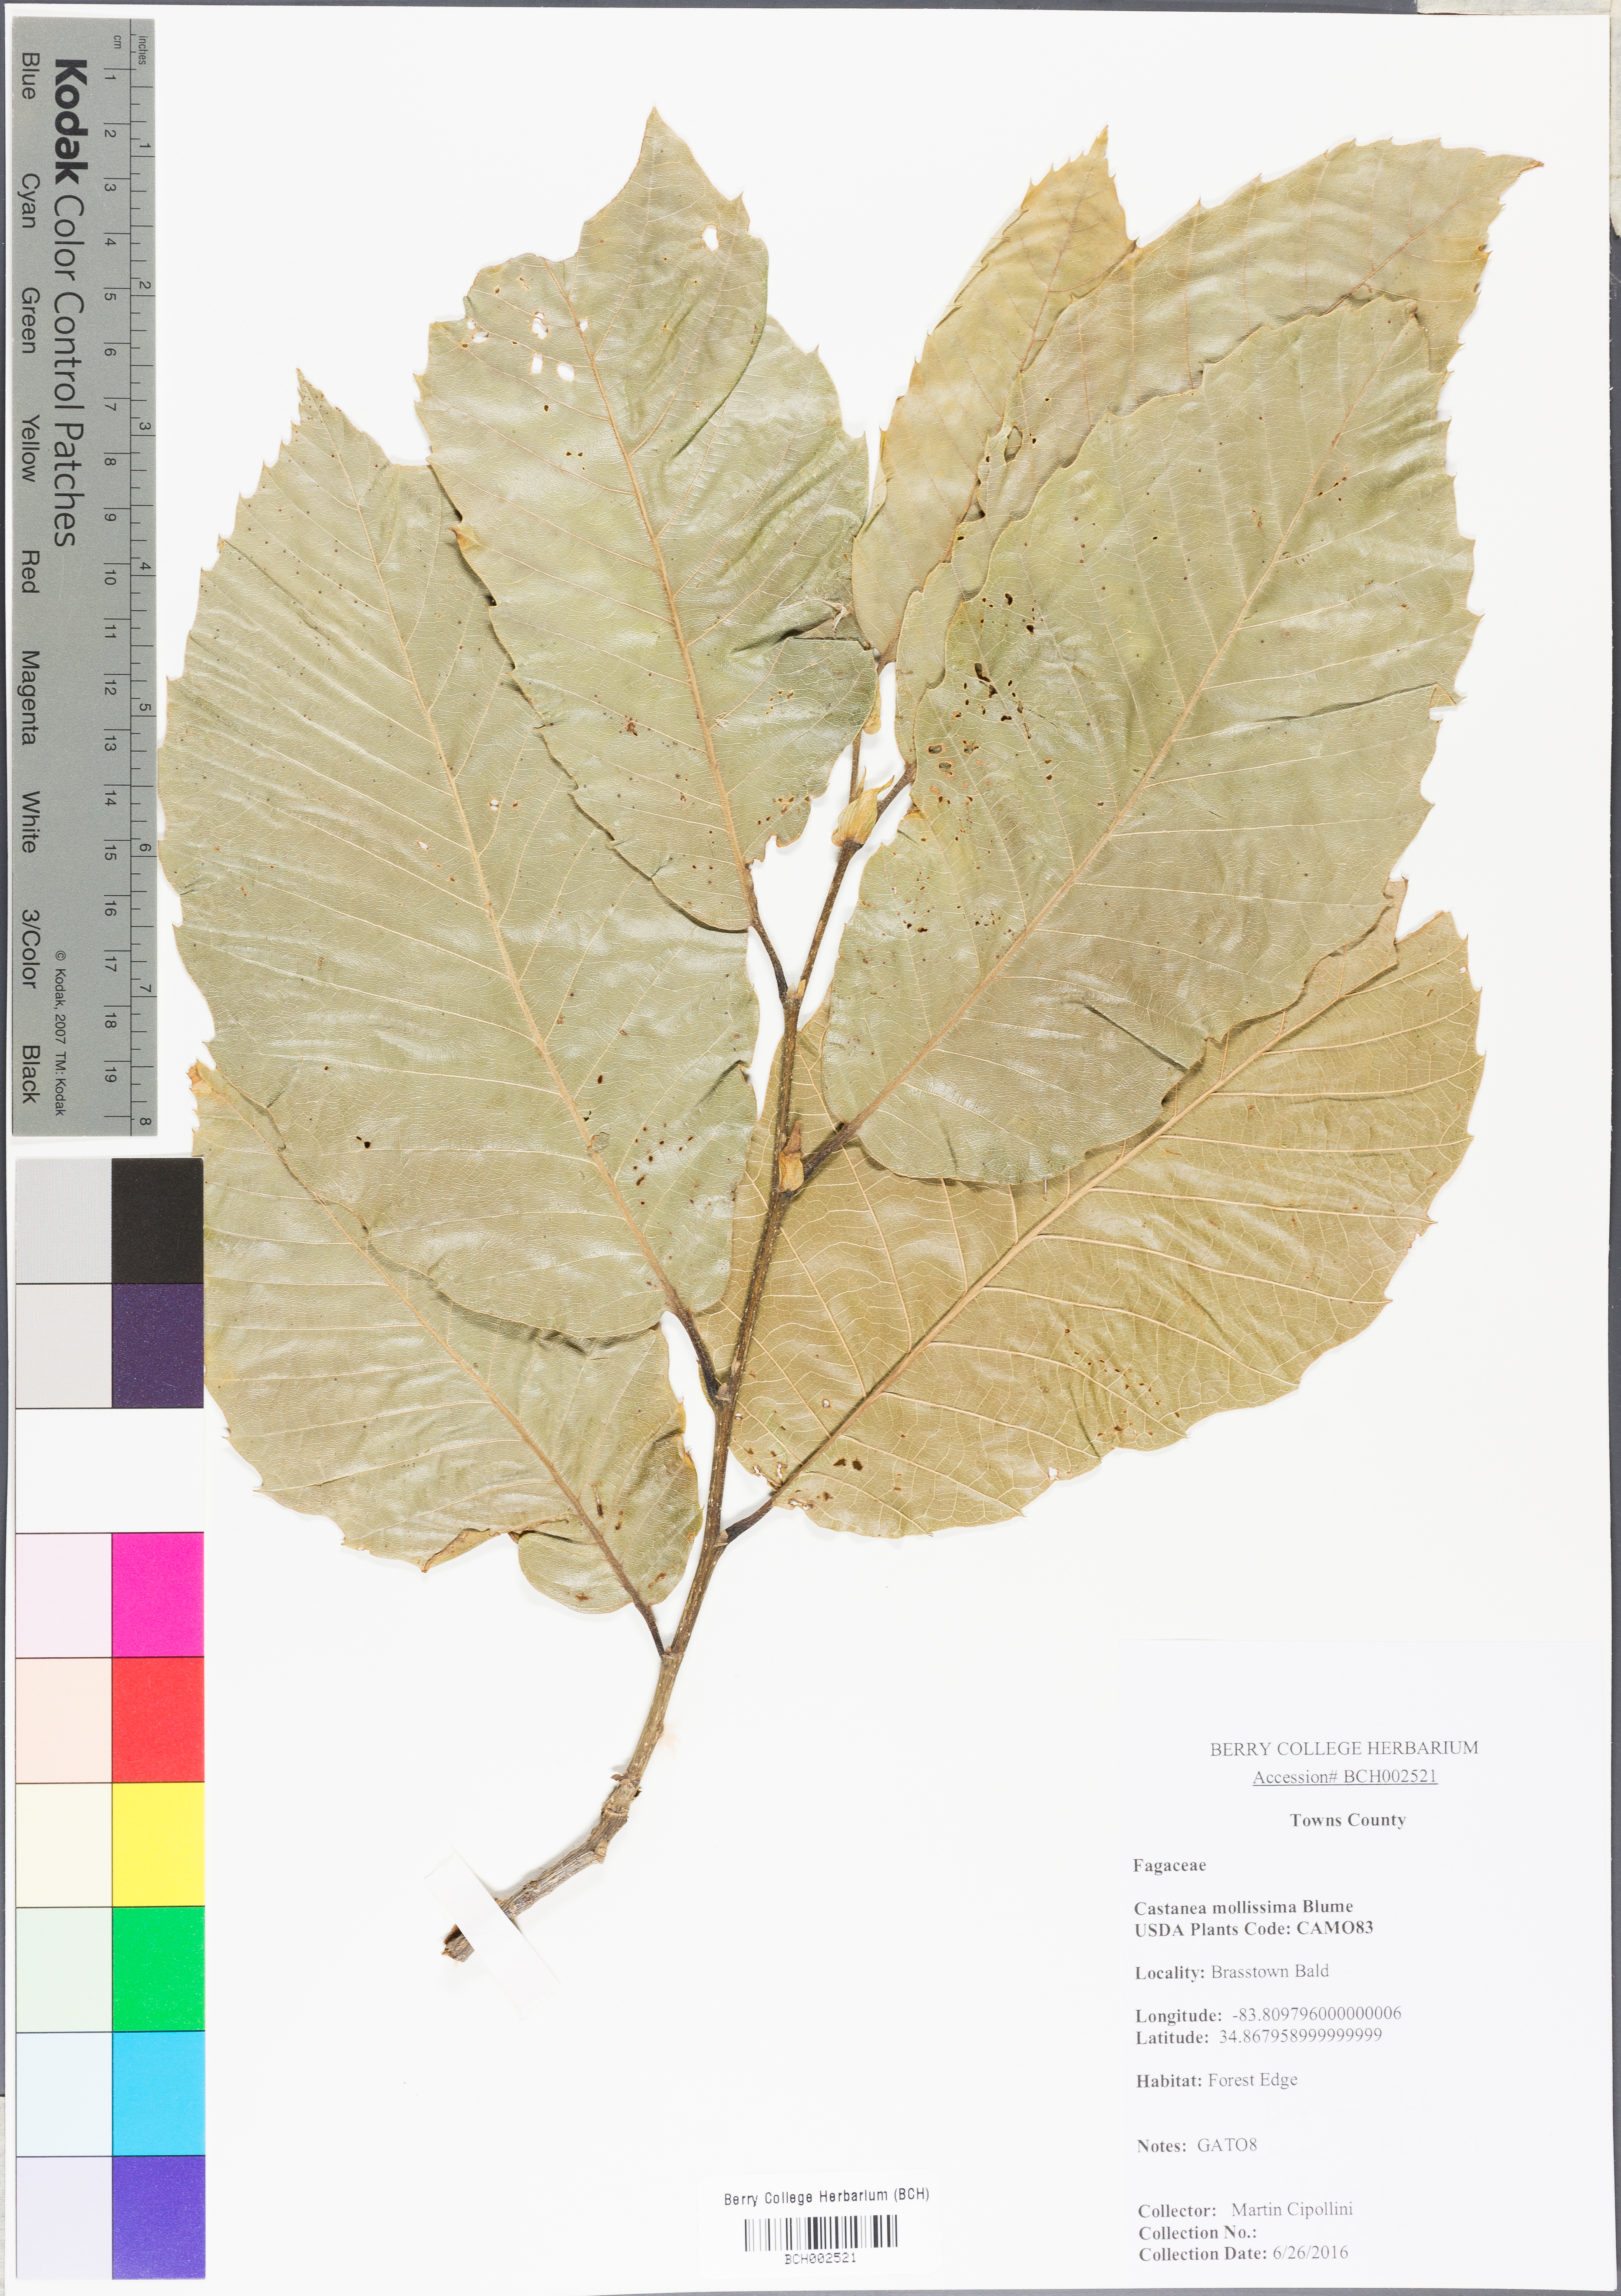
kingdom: Plantae
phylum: Tracheophyta
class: Magnoliopsida
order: Fagales
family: Fagaceae
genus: Castanea
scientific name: Castanea mollissima
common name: Chinese chestnut
